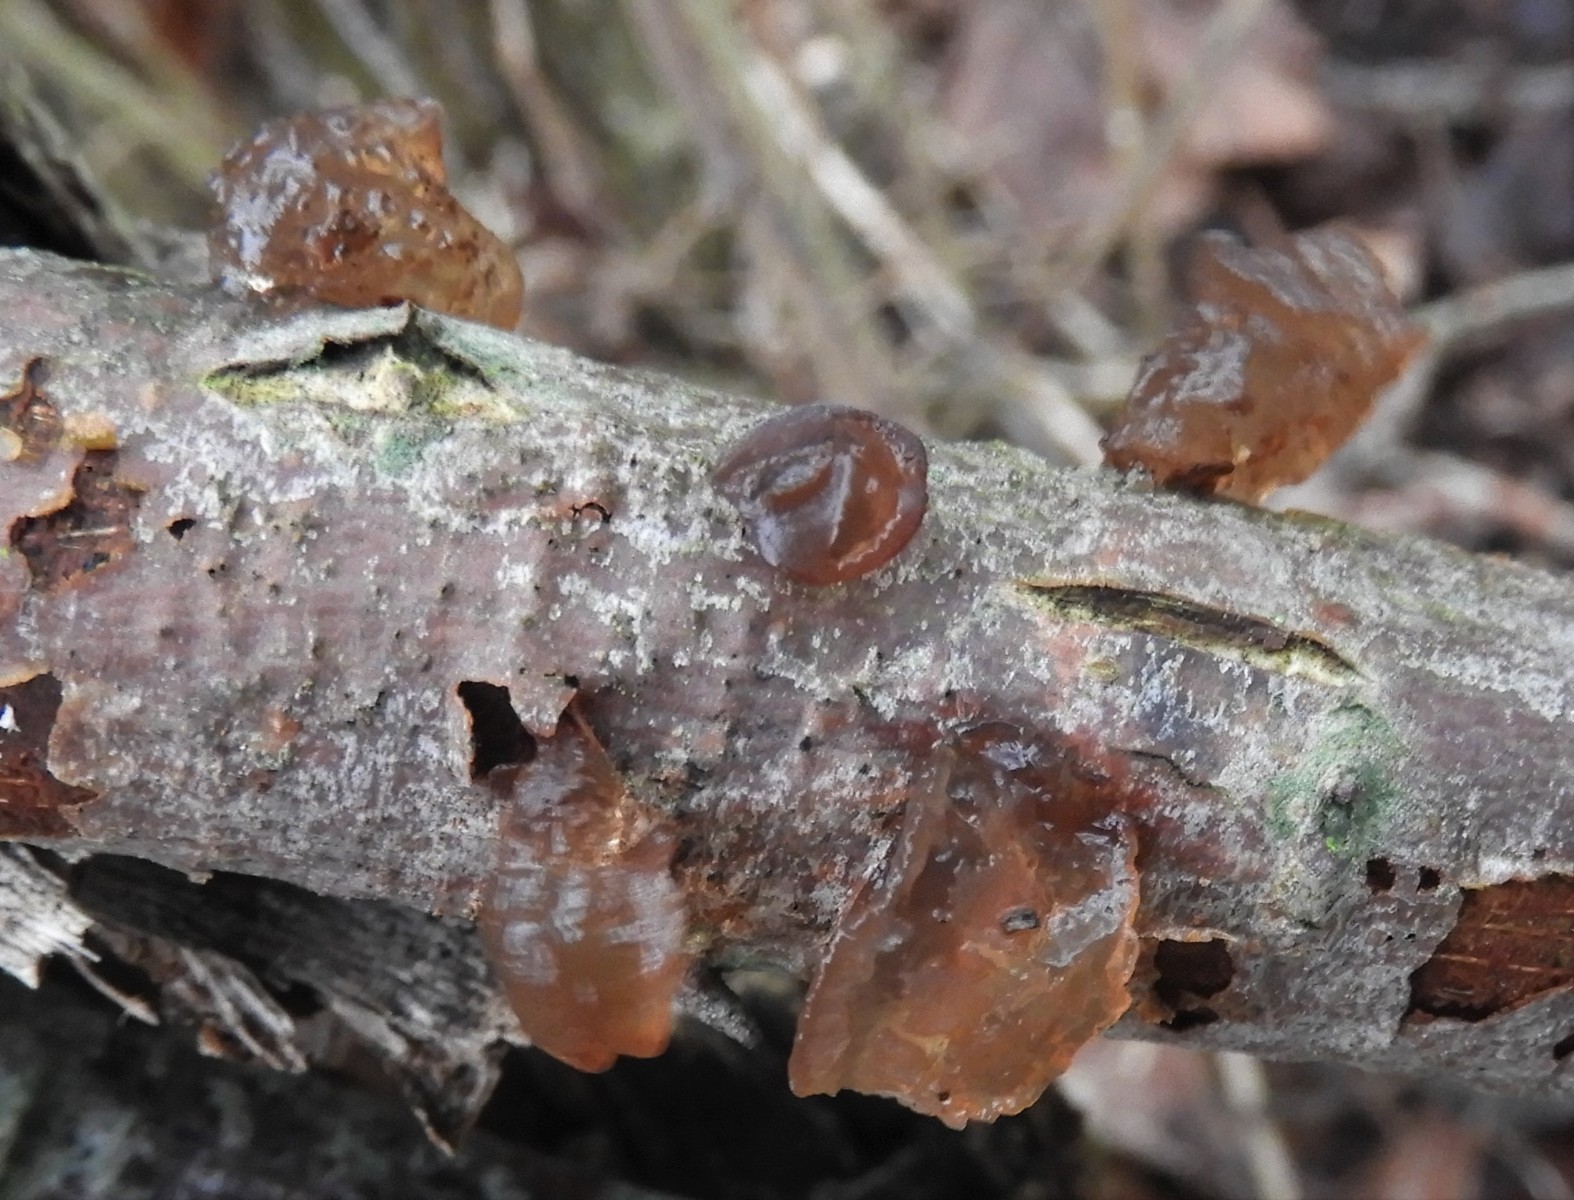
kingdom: Fungi
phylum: Basidiomycota
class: Agaricomycetes
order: Auriculariales
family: Auriculariaceae
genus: Exidia
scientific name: Exidia recisa
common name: pile-bævretop
